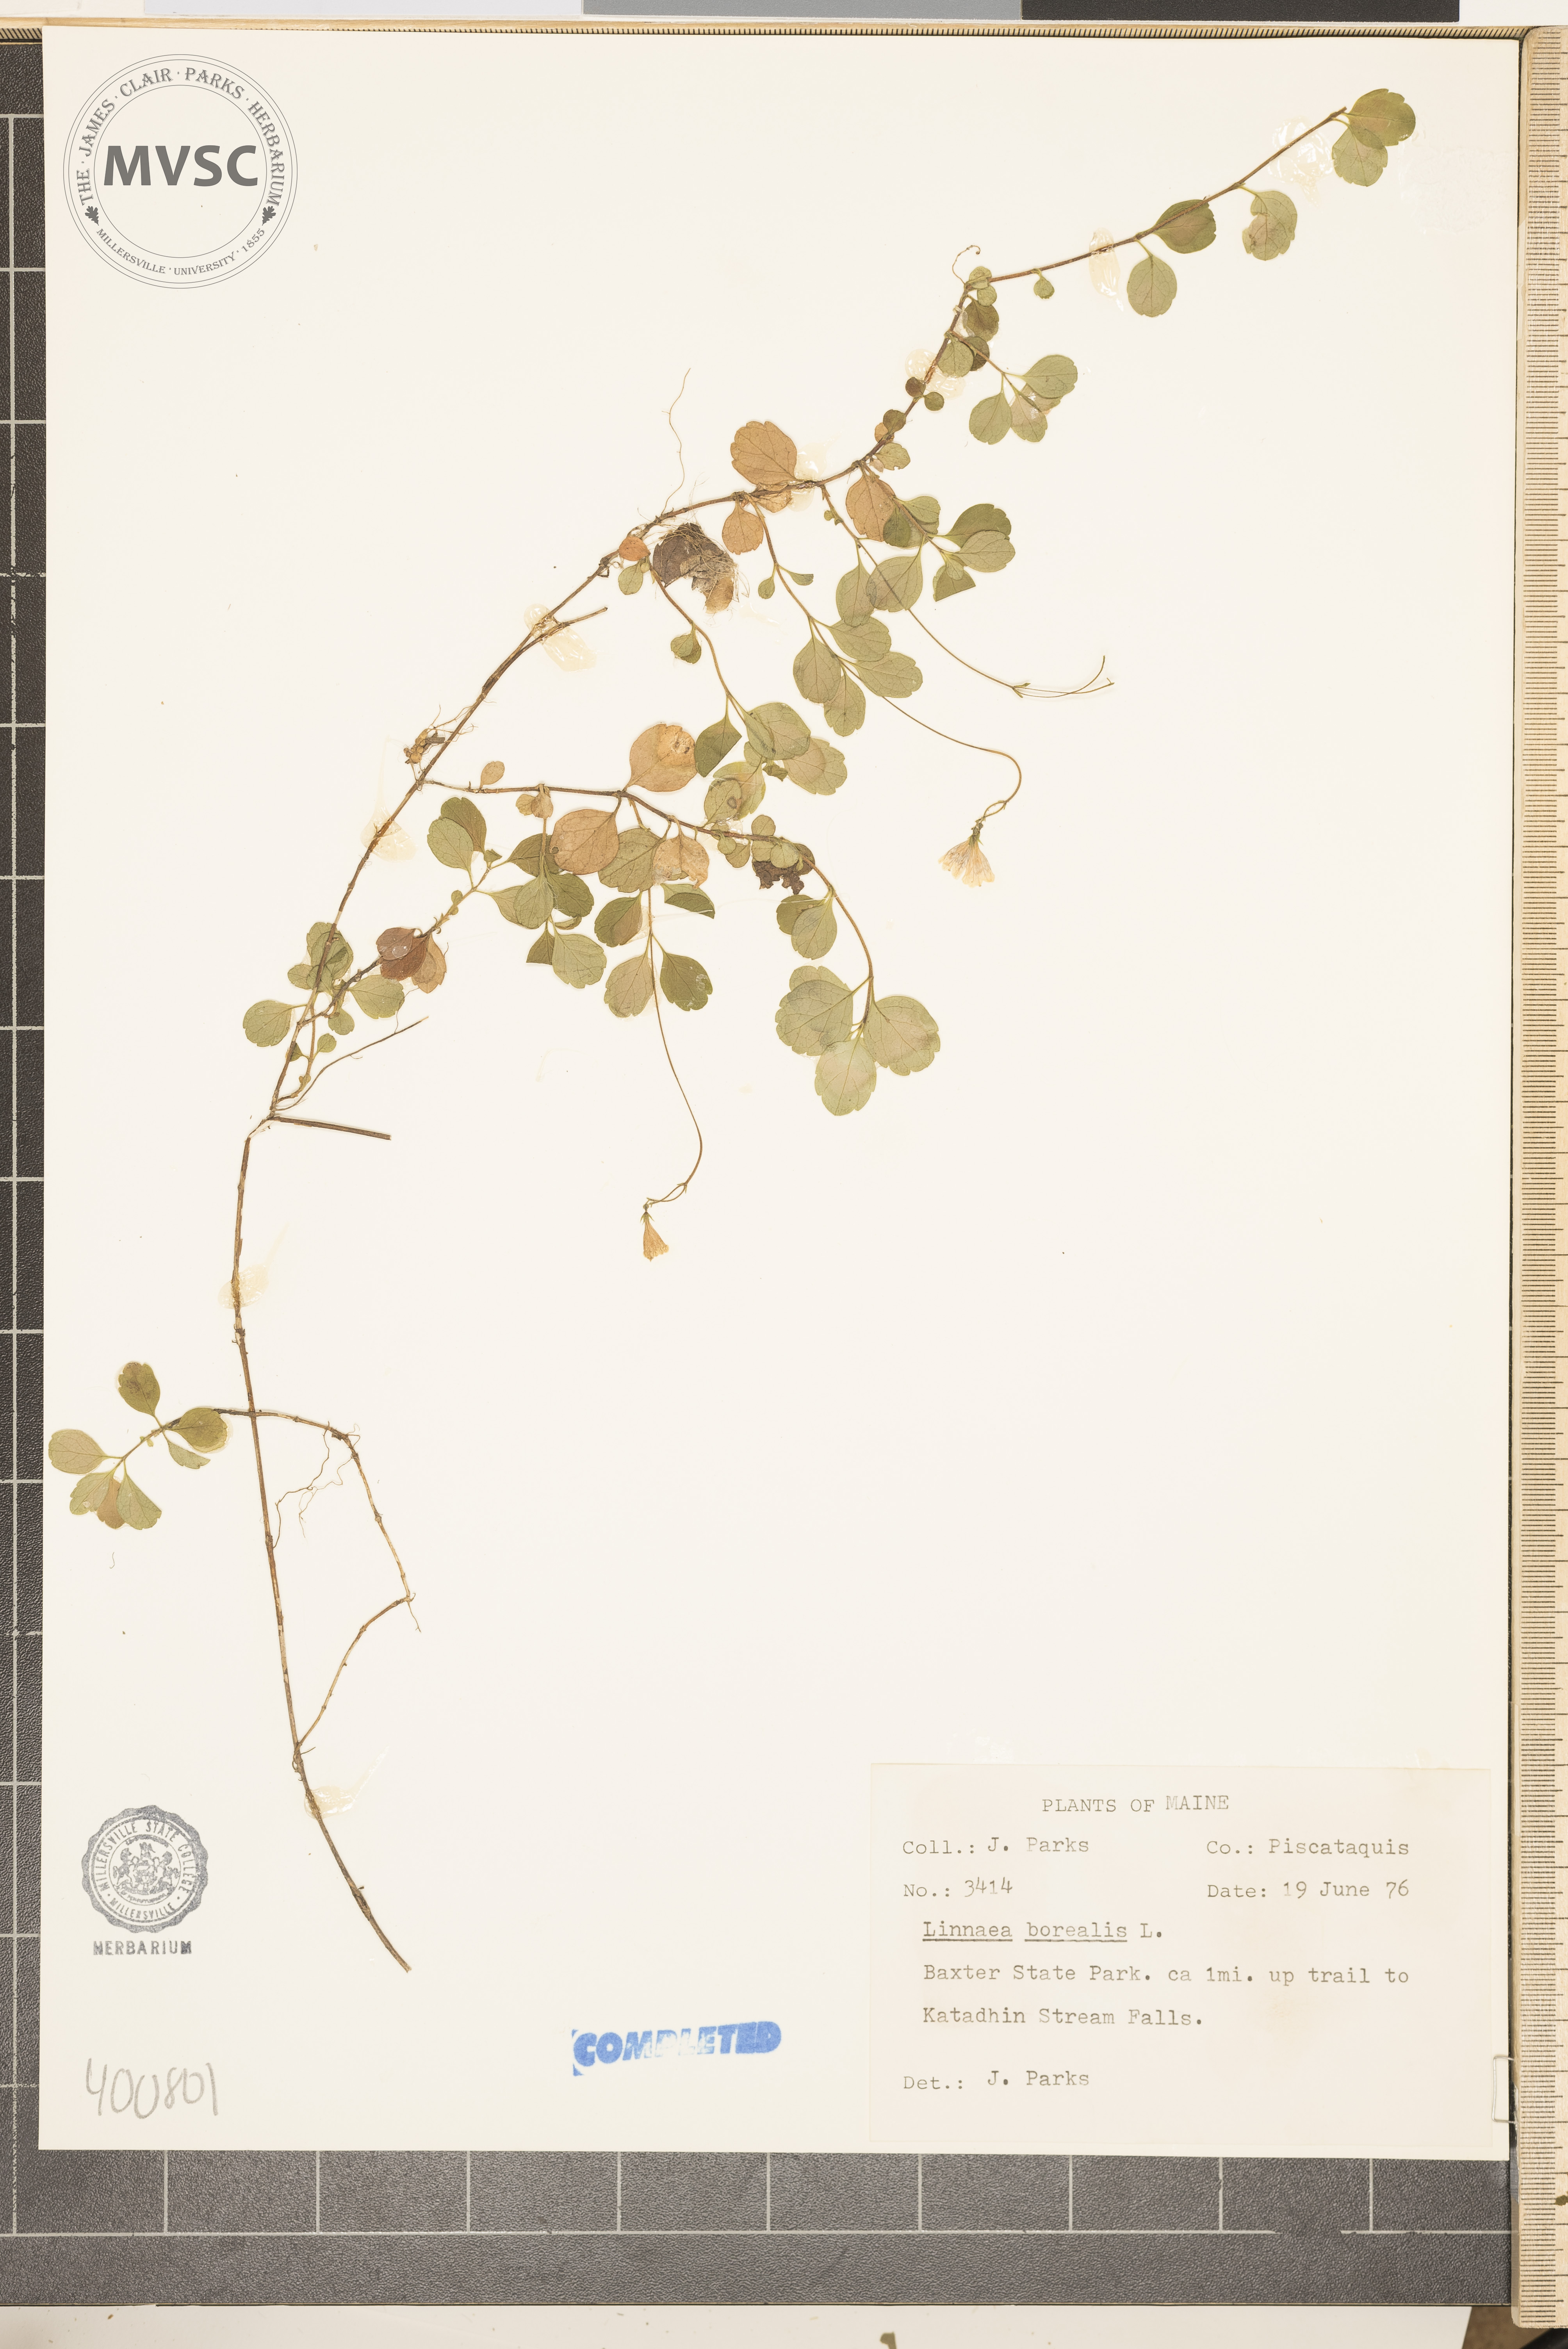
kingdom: Plantae
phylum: Tracheophyta
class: Magnoliopsida
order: Dipsacales
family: Caprifoliaceae
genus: Linnaea
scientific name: Linnaea borealis
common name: Twinflower
